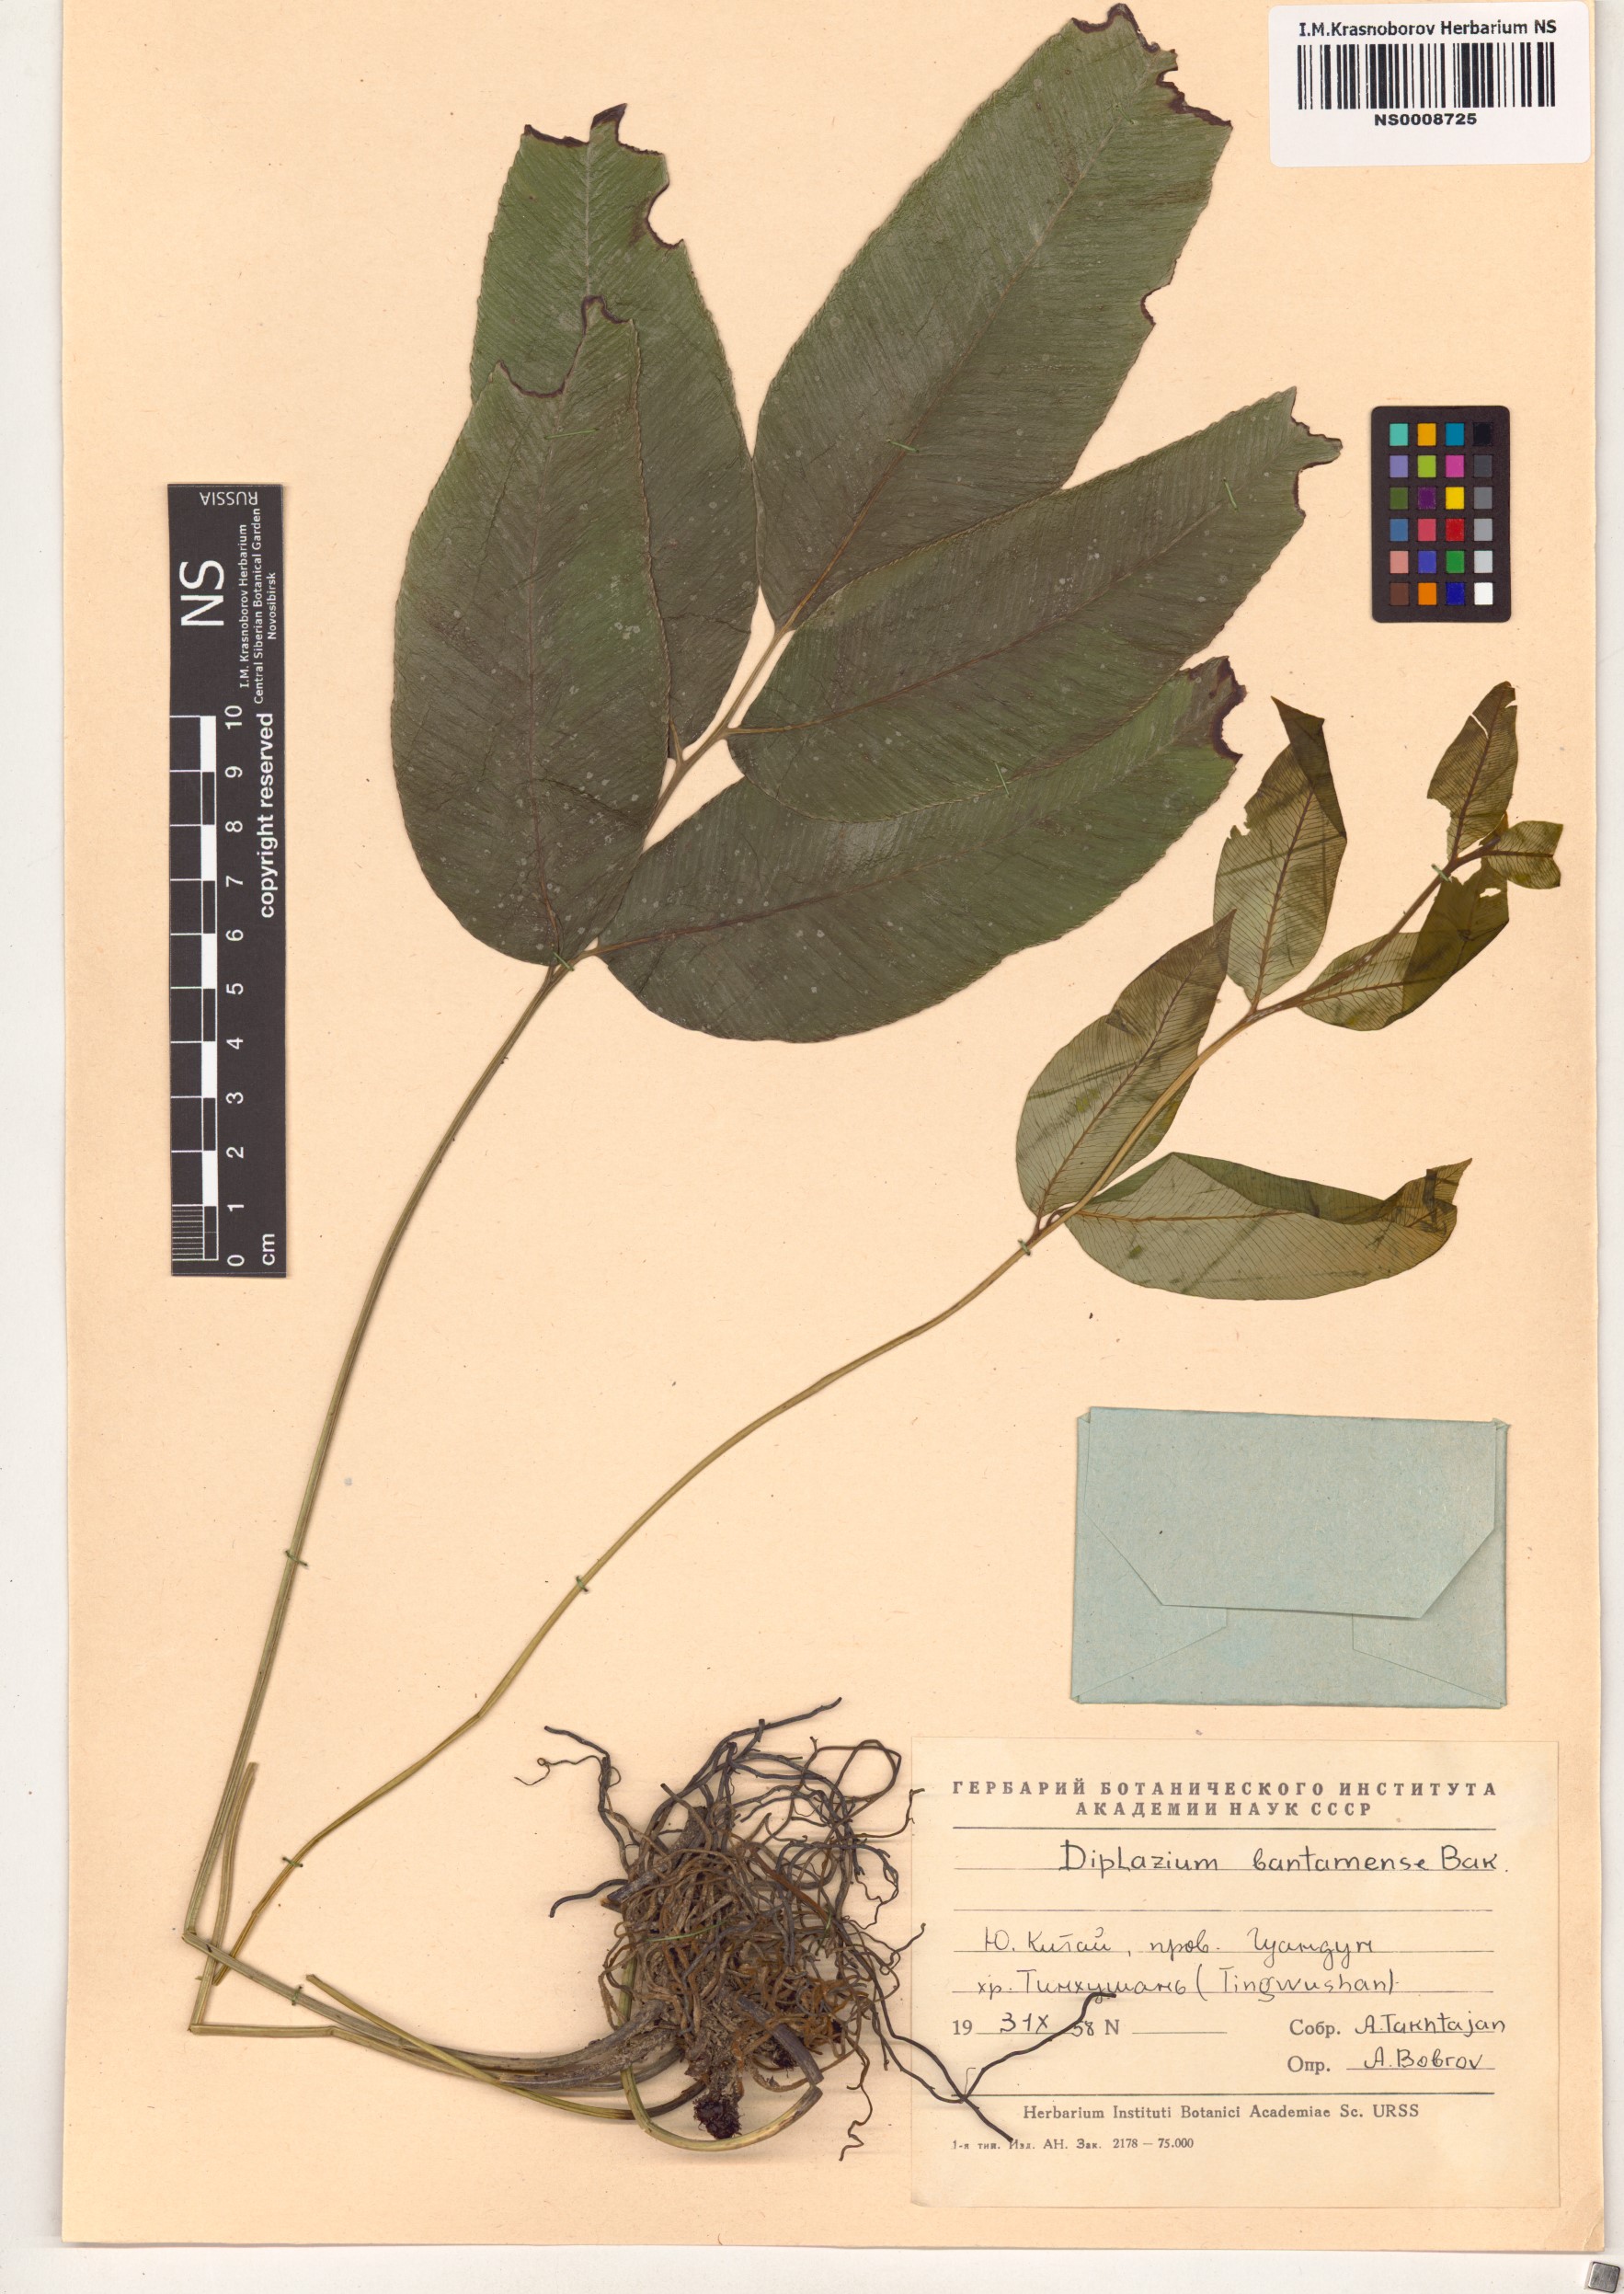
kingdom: Plantae
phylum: Tracheophyta
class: Polypodiopsida
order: Polypodiales
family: Athyriaceae
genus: Diplazium
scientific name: Diplazium bantamense
